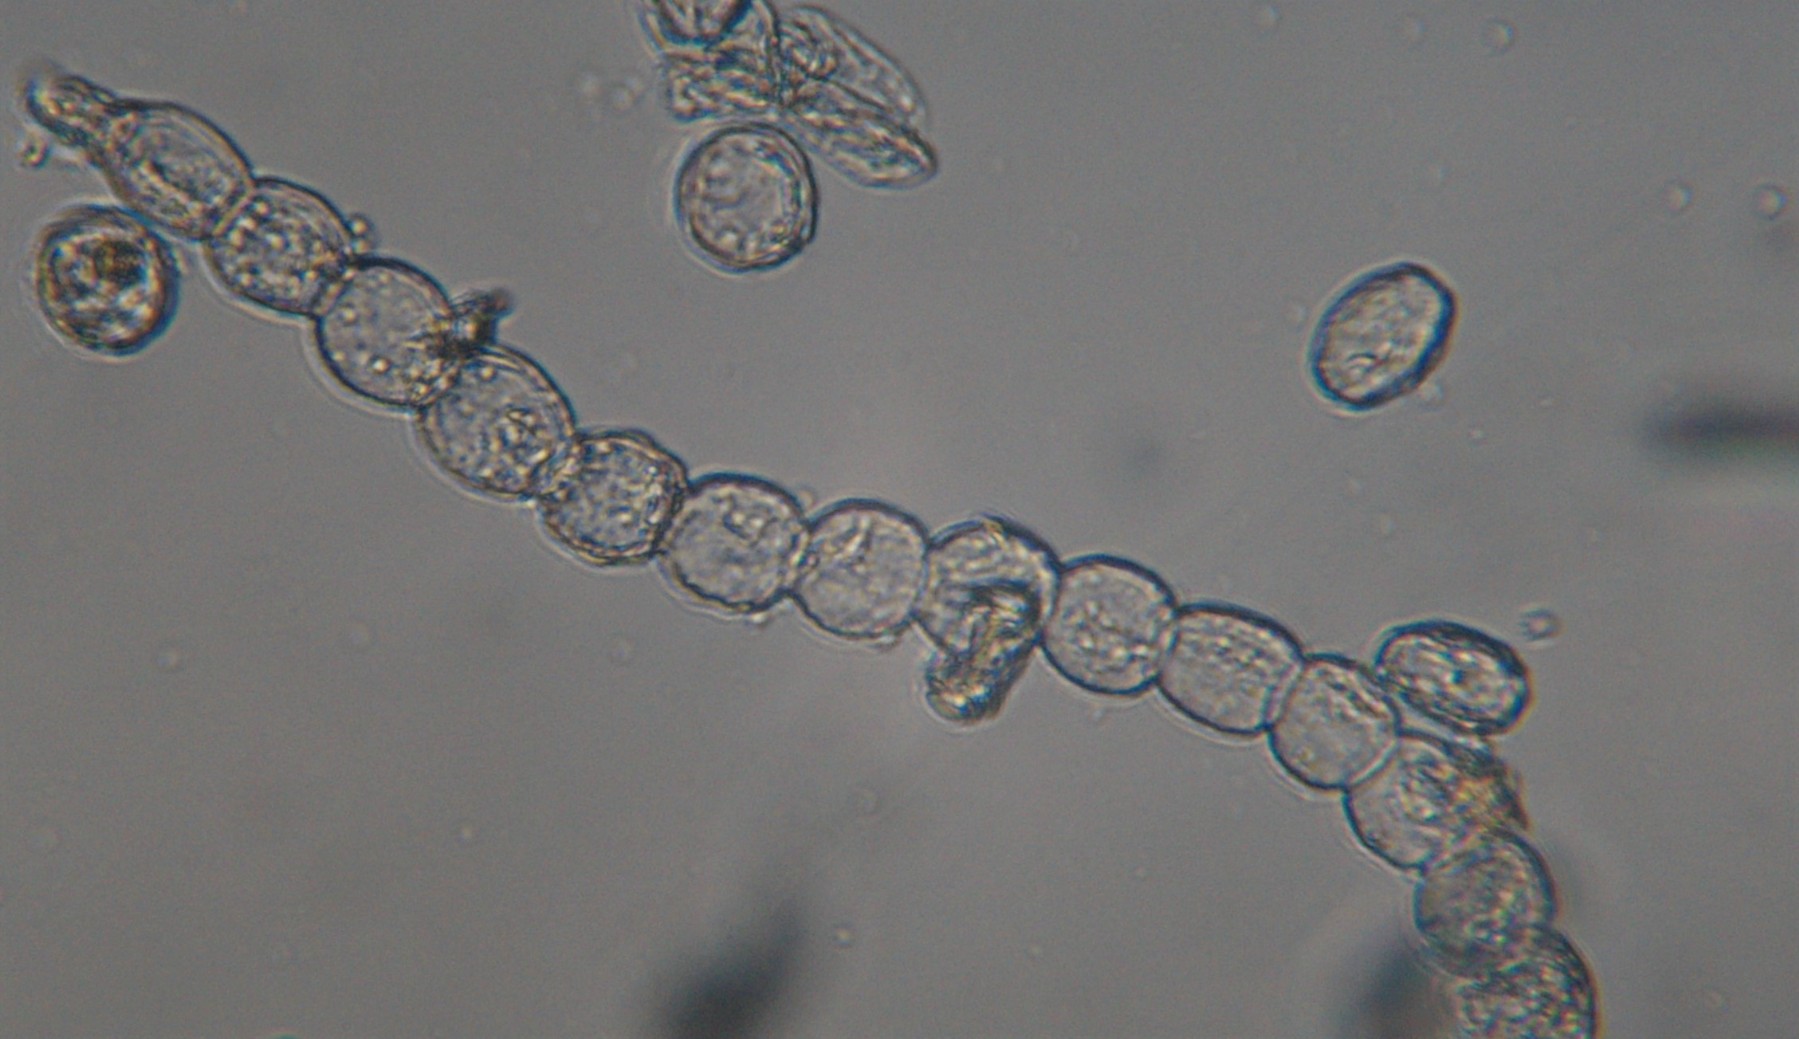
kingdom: Fungi
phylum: Ascomycota
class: Leotiomycetes
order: Helotiales
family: Erysiphaceae
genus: Sawadaea
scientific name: Sawadaea bicornis
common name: Maple mildew
